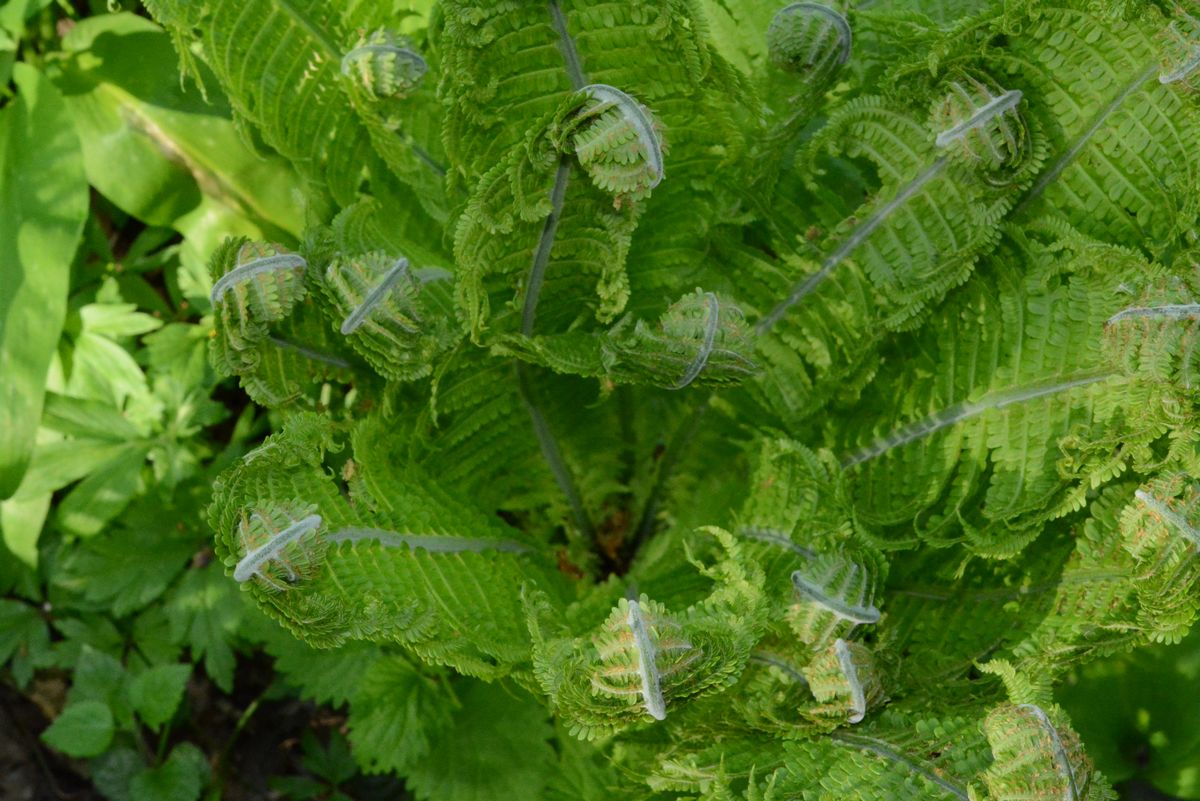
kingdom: Plantae
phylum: Tracheophyta
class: Polypodiopsida
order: Polypodiales
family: Onocleaceae
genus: Matteuccia
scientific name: Matteuccia struthiopteris
